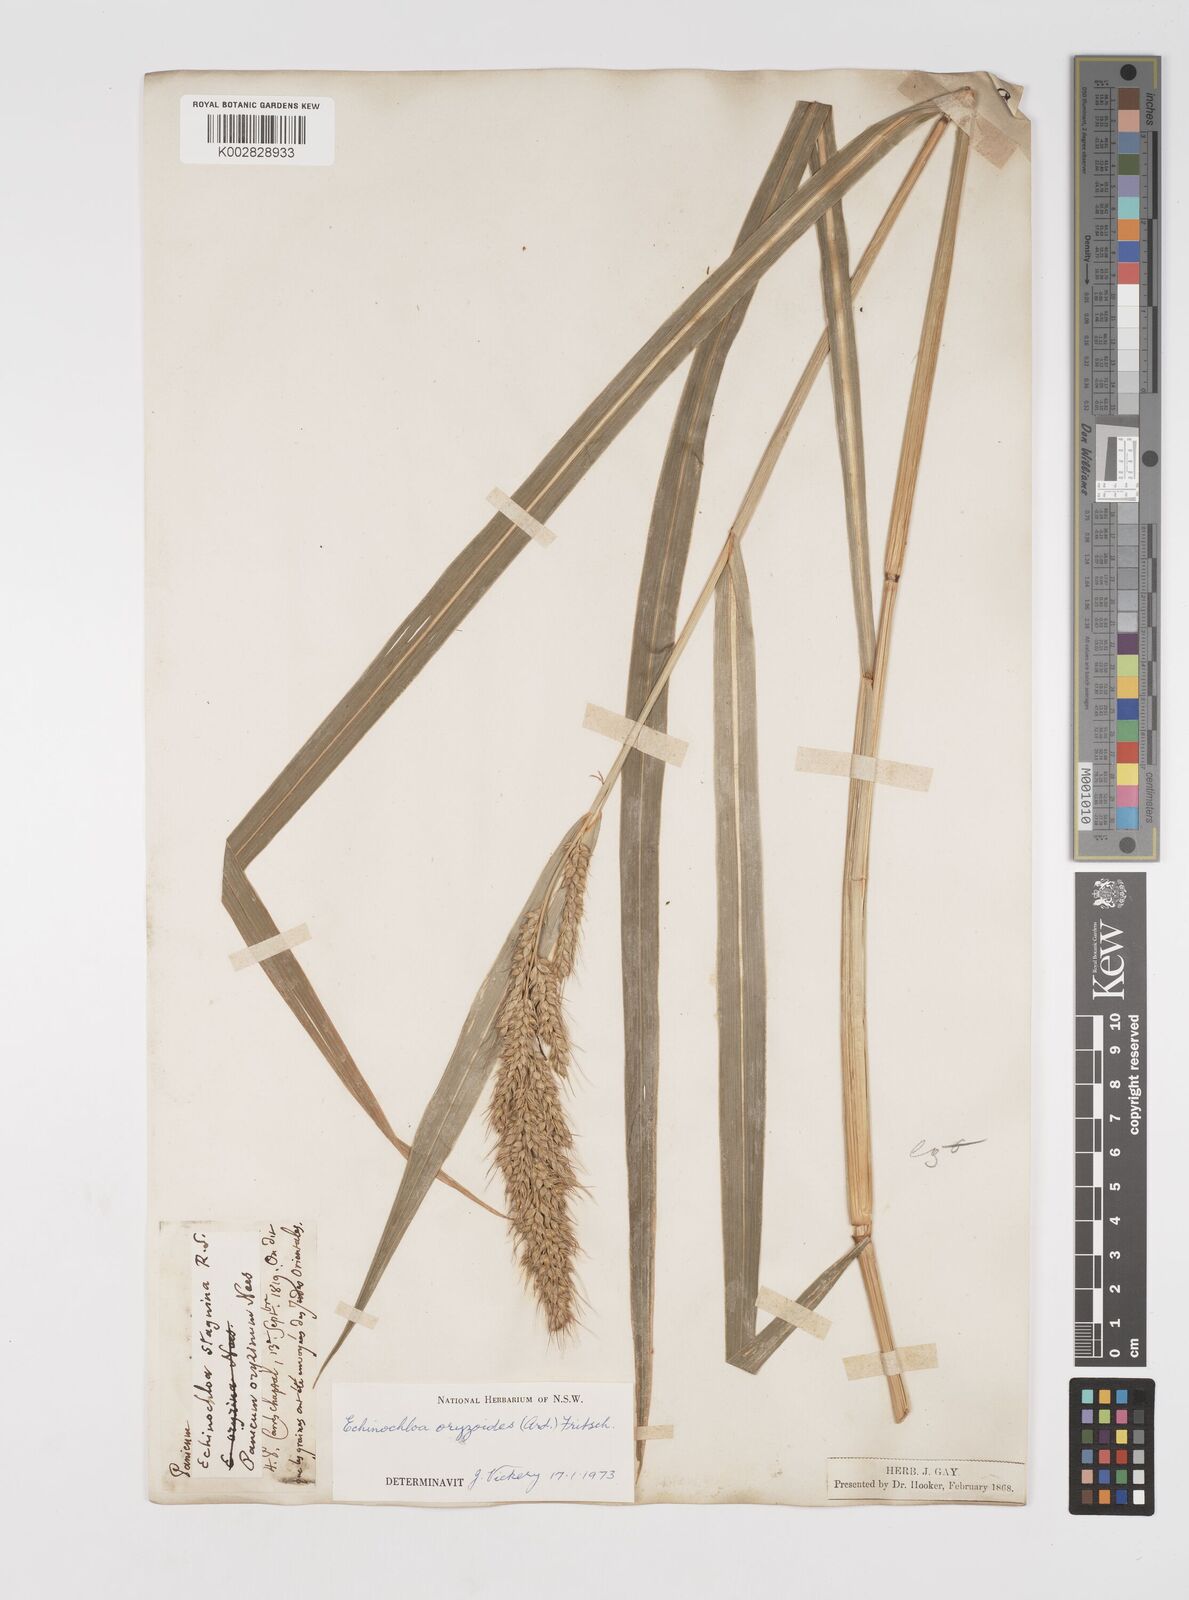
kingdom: Plantae
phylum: Tracheophyta
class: Liliopsida
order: Poales
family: Poaceae
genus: Echinochloa
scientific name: Echinochloa oryzoides
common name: Early water grass
